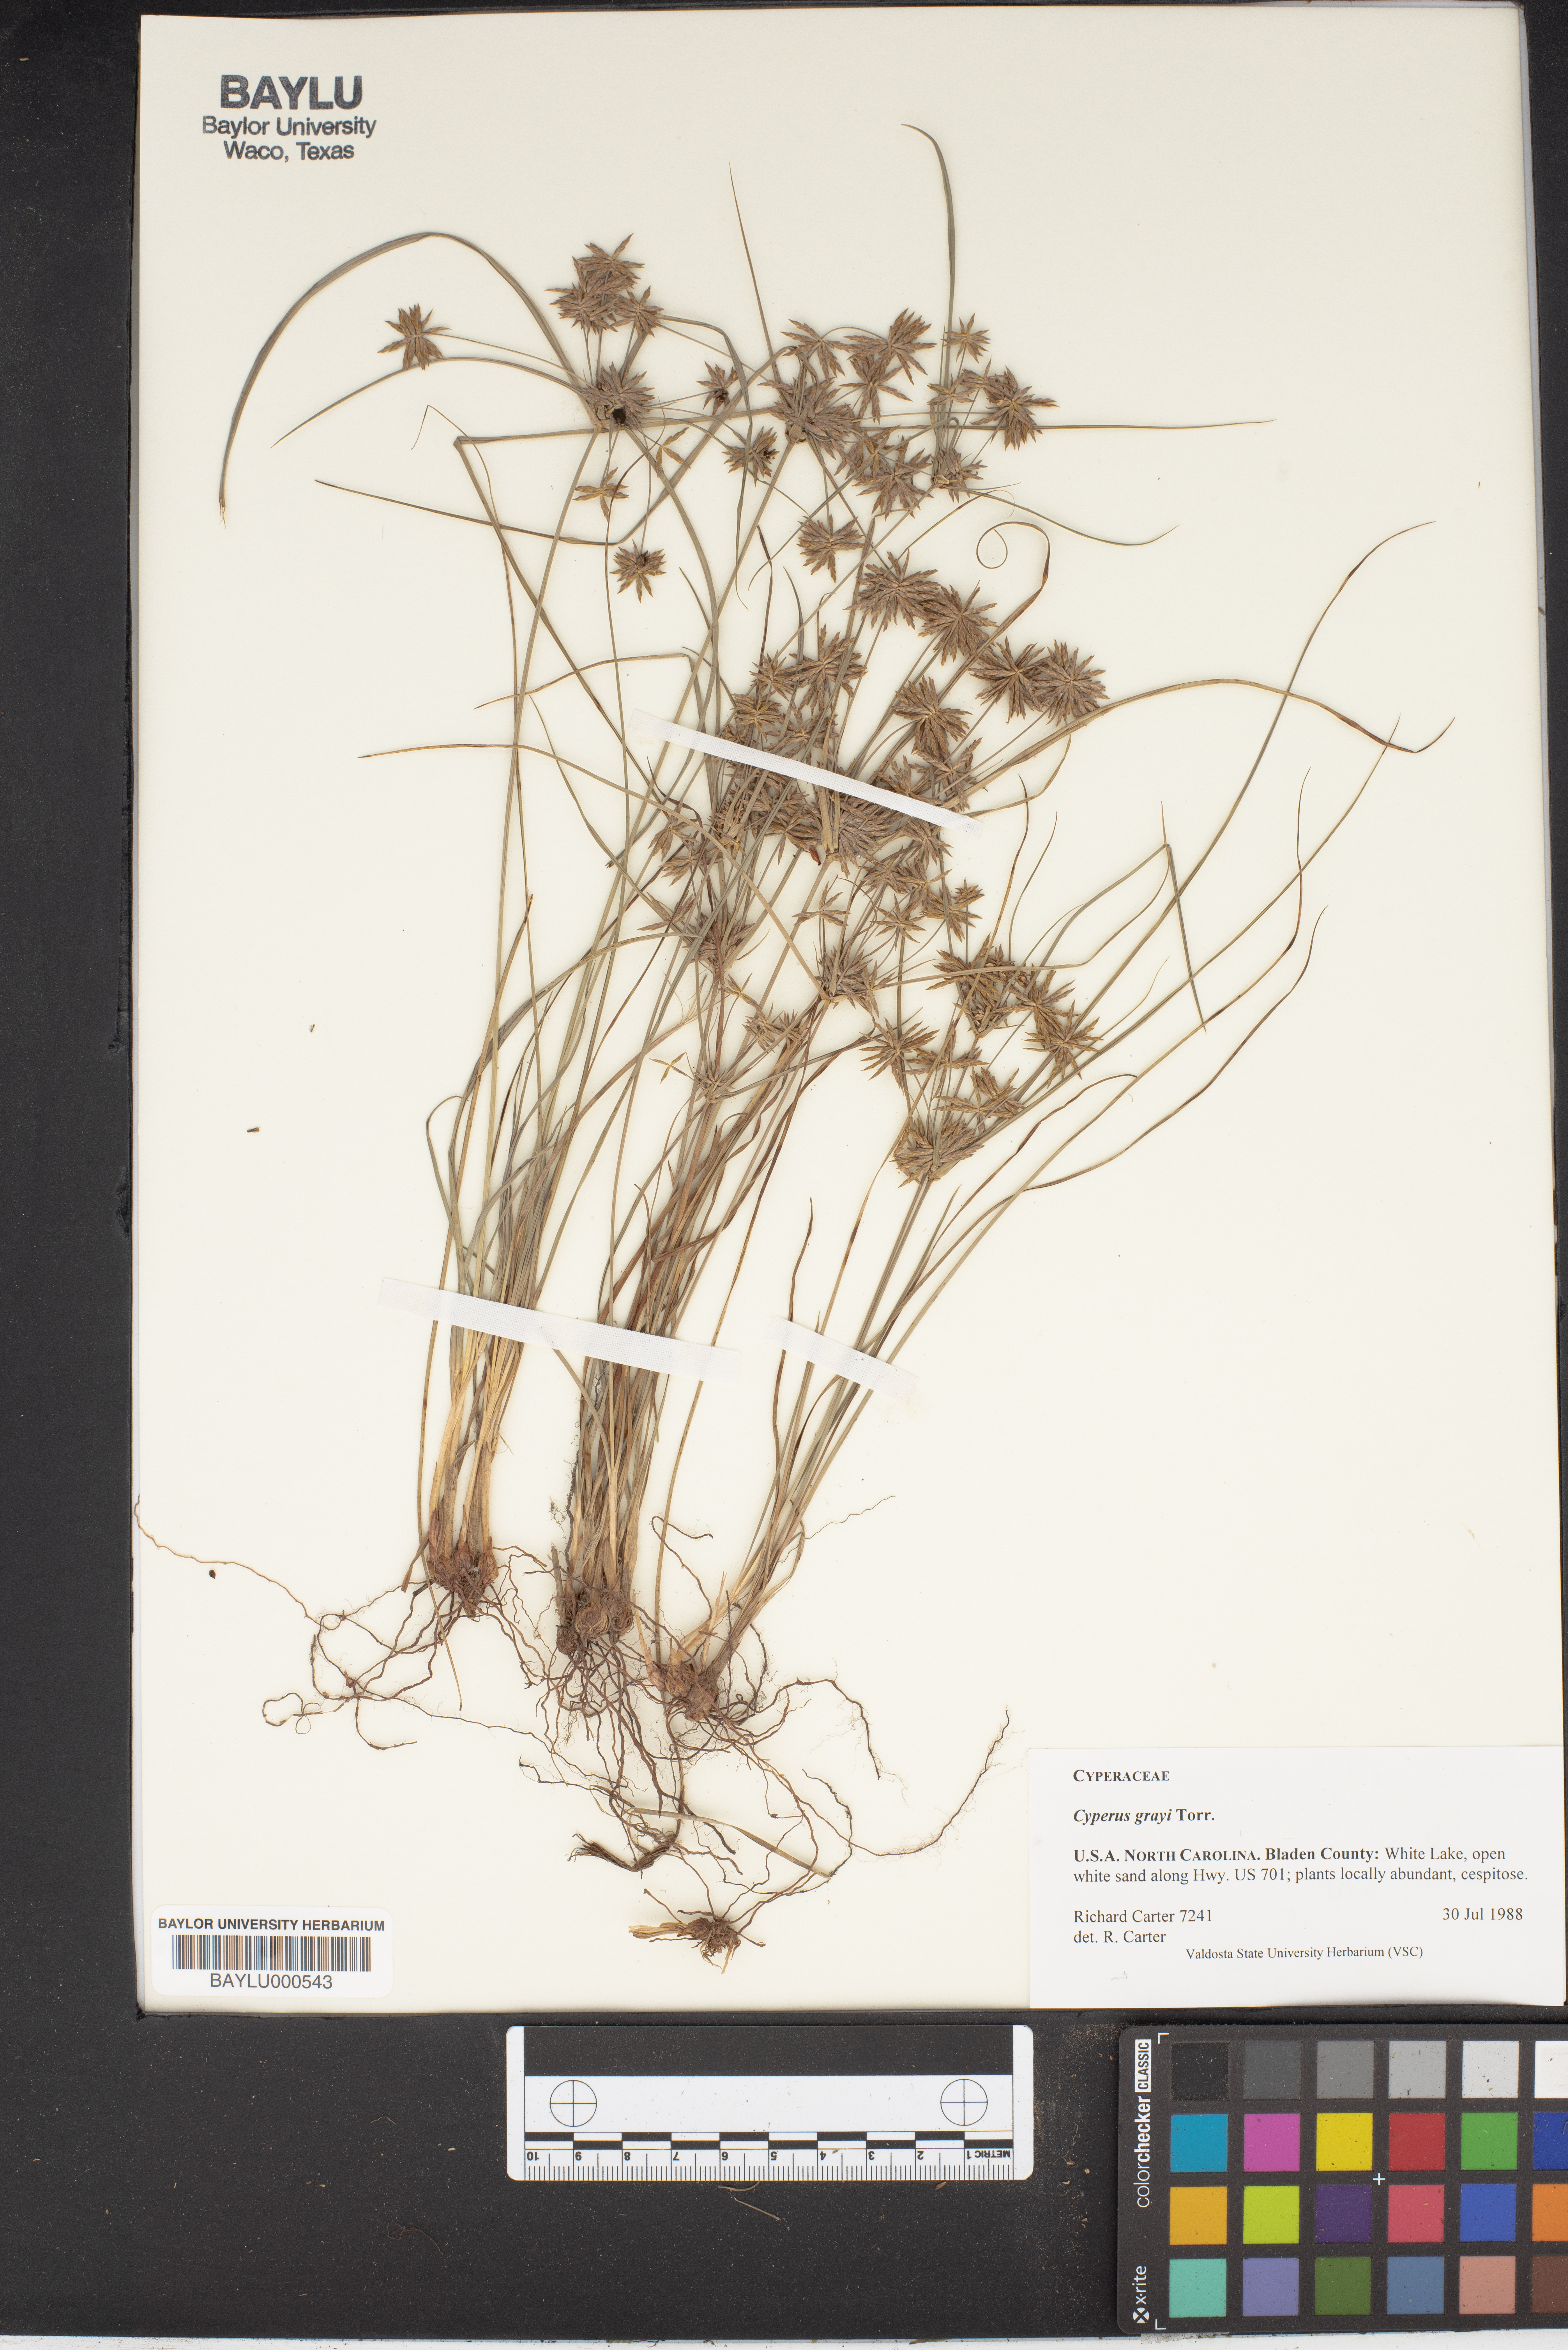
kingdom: Plantae
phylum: Tracheophyta
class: Liliopsida
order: Poales
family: Cyperaceae
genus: Cyperus
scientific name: Cyperus grayi
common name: Gray's flat sedge
